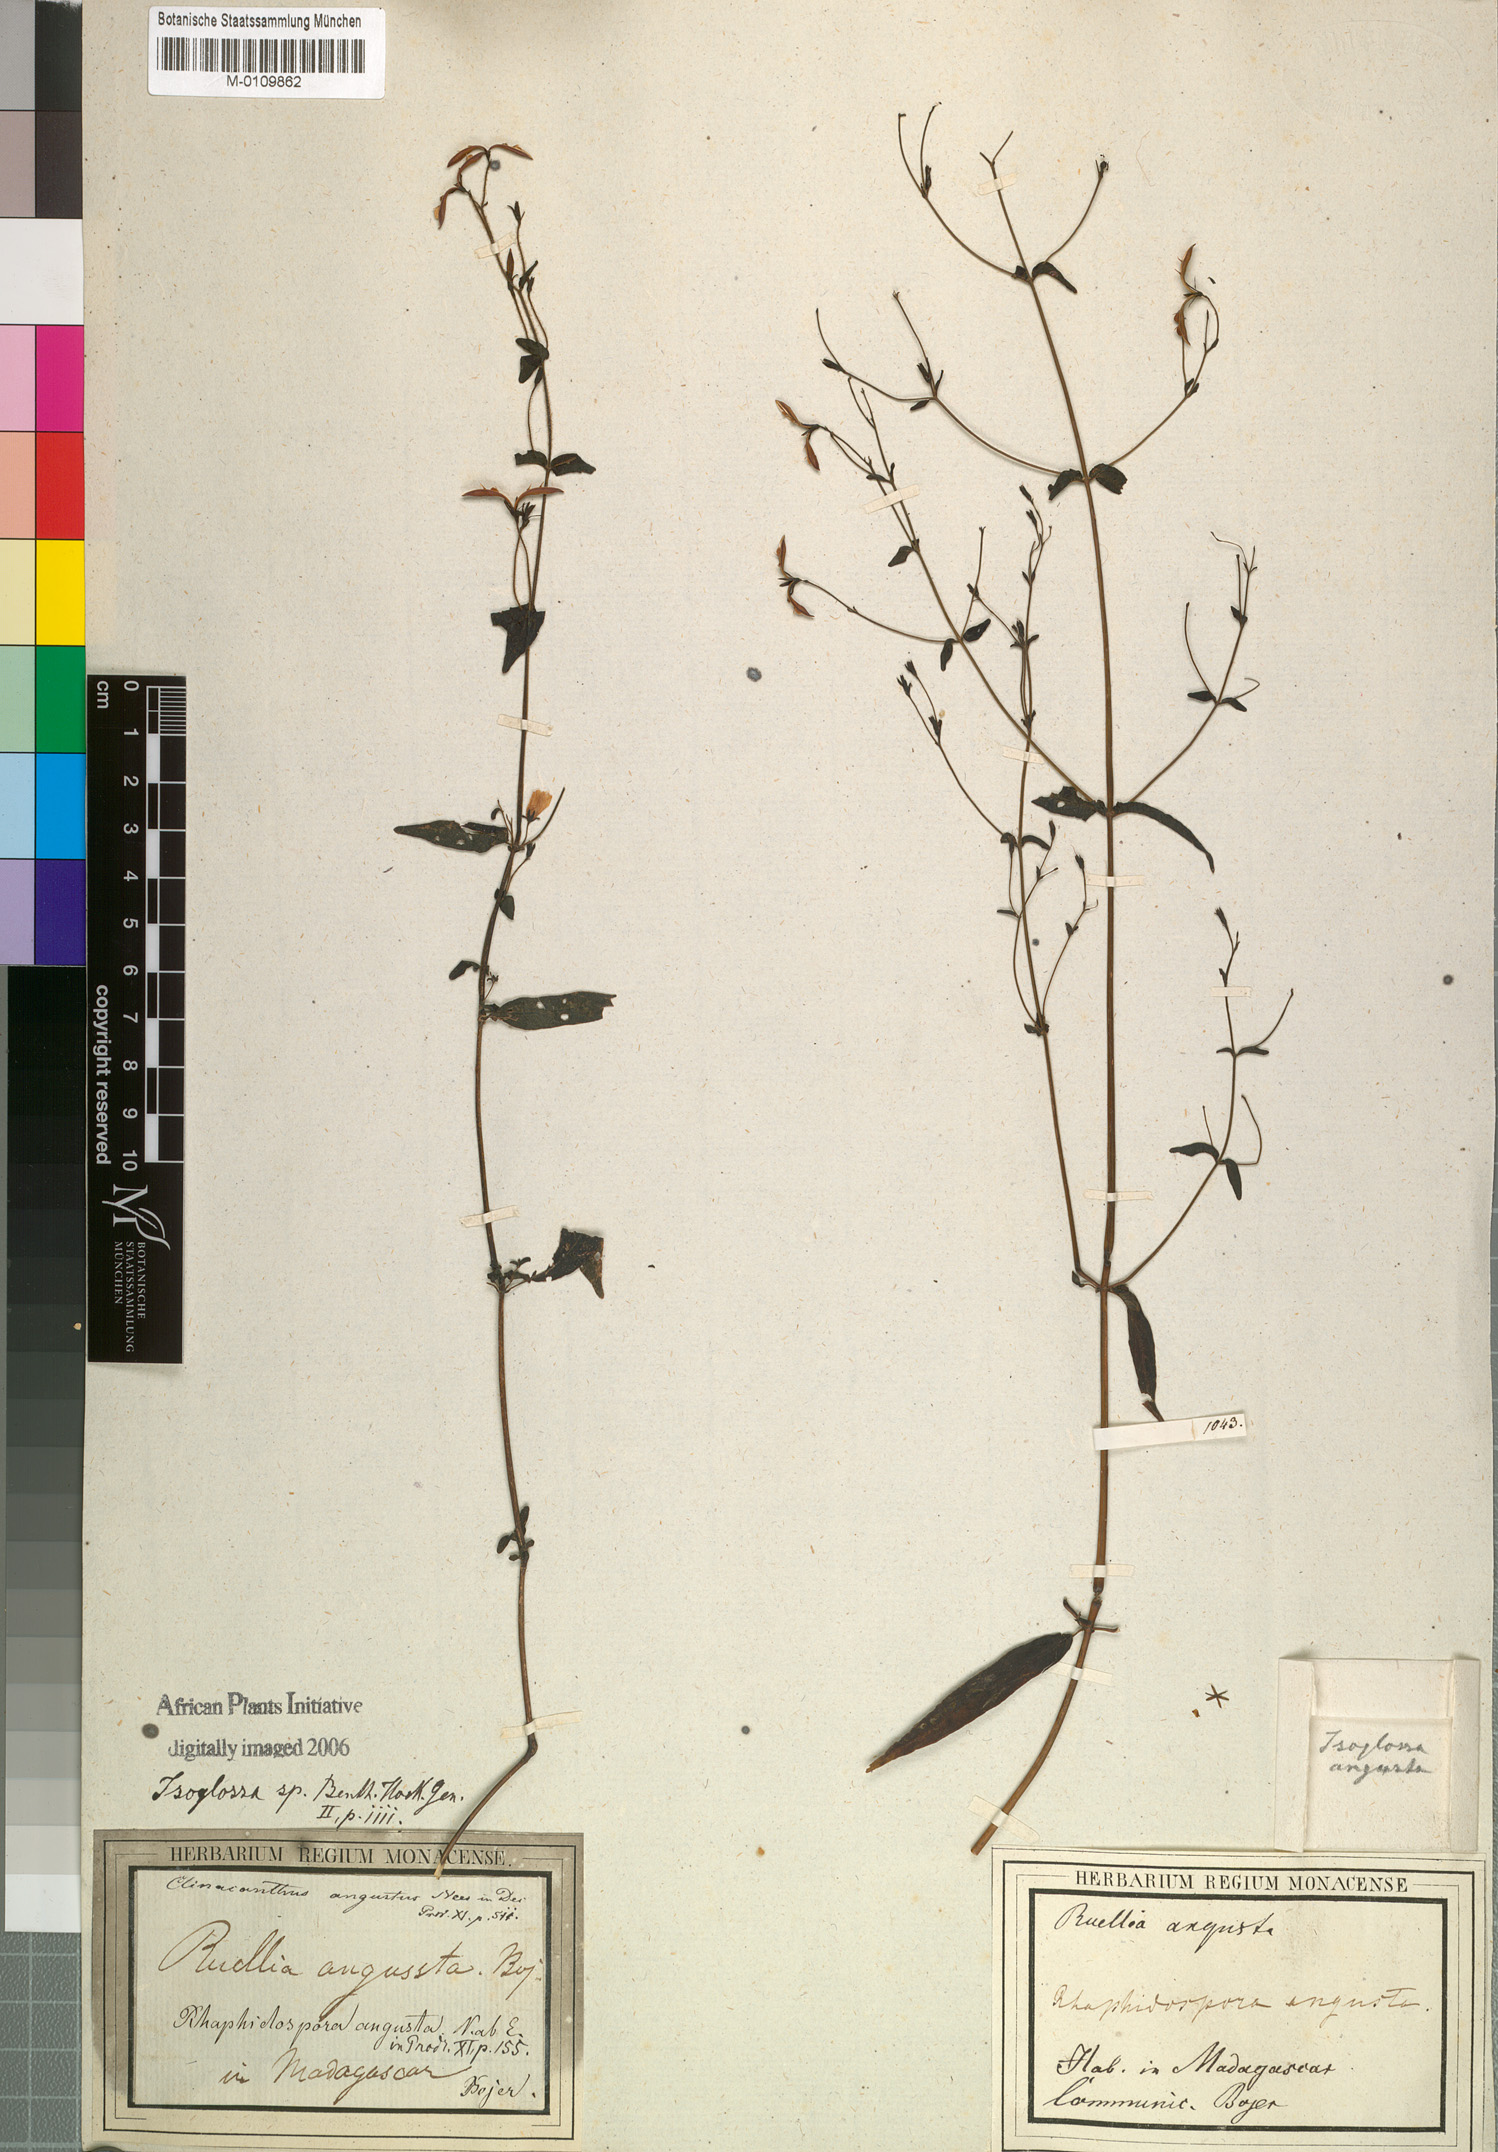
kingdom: Plantae
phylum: Tracheophyta
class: Magnoliopsida
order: Lamiales
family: Acanthaceae
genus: Isoglossa
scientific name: Isoglossa angusta
